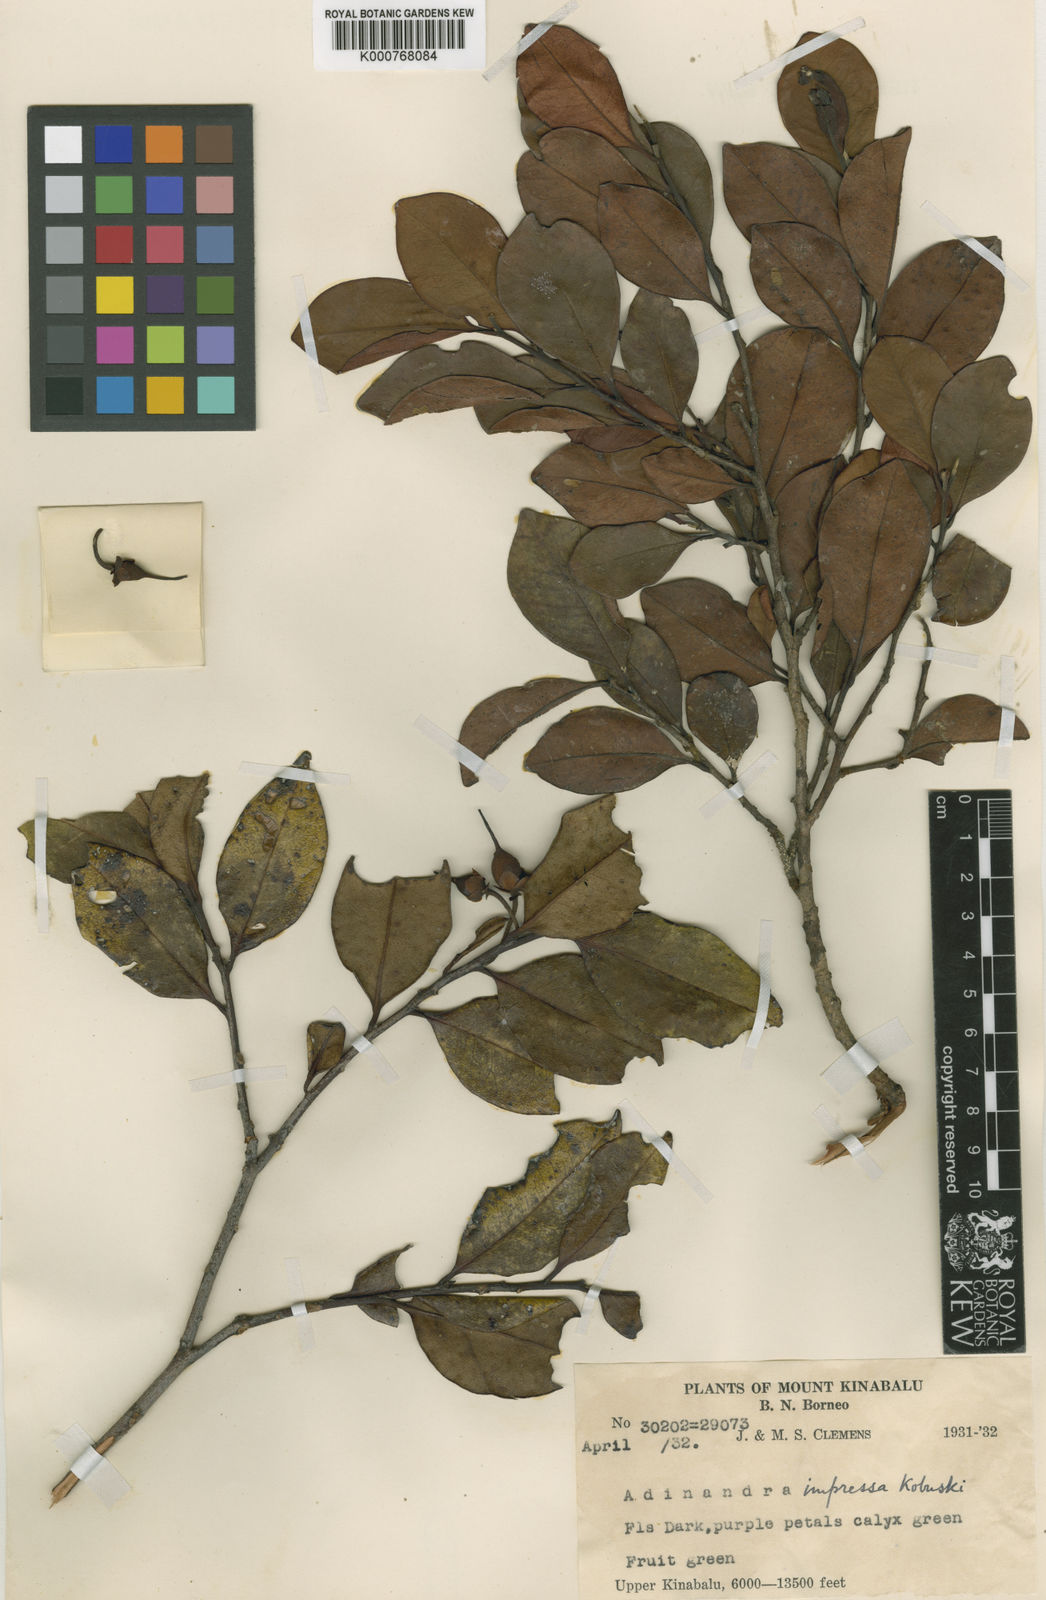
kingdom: Plantae
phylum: Tracheophyta
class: Magnoliopsida
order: Ericales
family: Pentaphylacaceae
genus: Adinandra
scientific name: Adinandra dumosa
